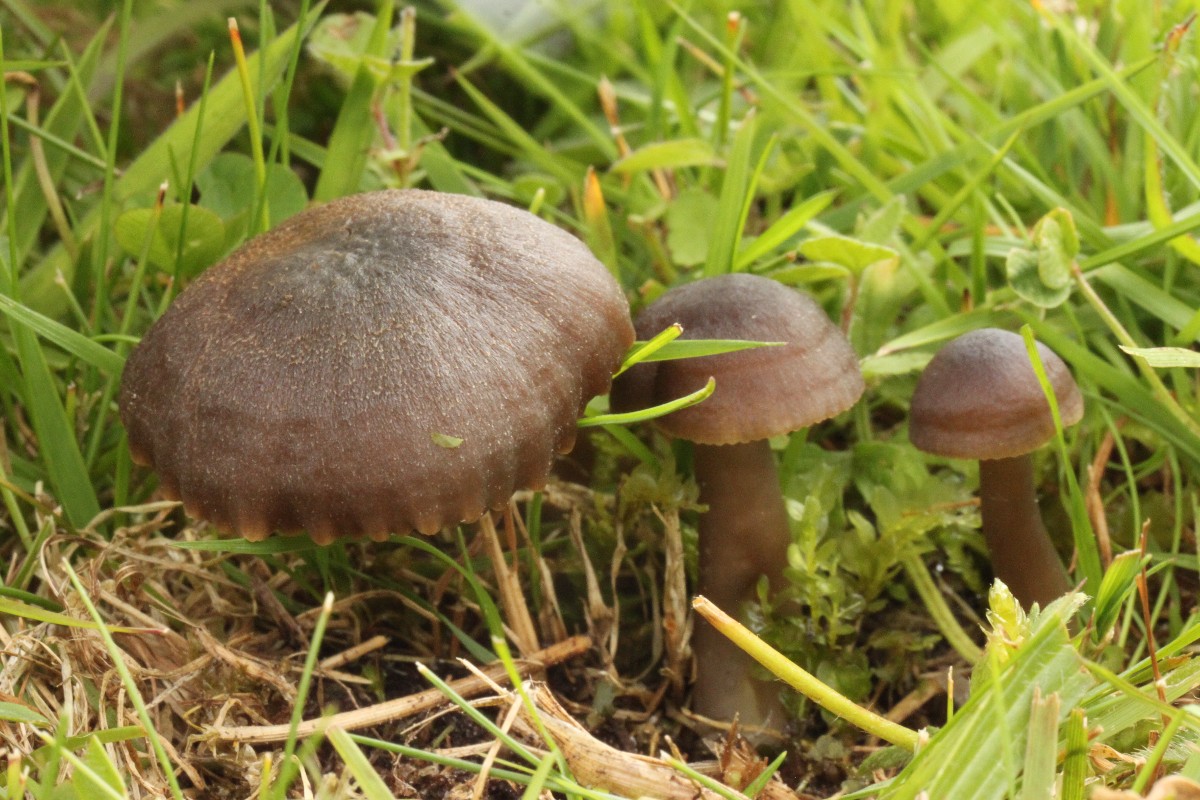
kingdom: Fungi
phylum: Basidiomycota
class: Agaricomycetes
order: Agaricales
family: Hygrophoraceae
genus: Neohygrocybe
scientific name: Neohygrocybe nitrata
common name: stinkende vokshat
